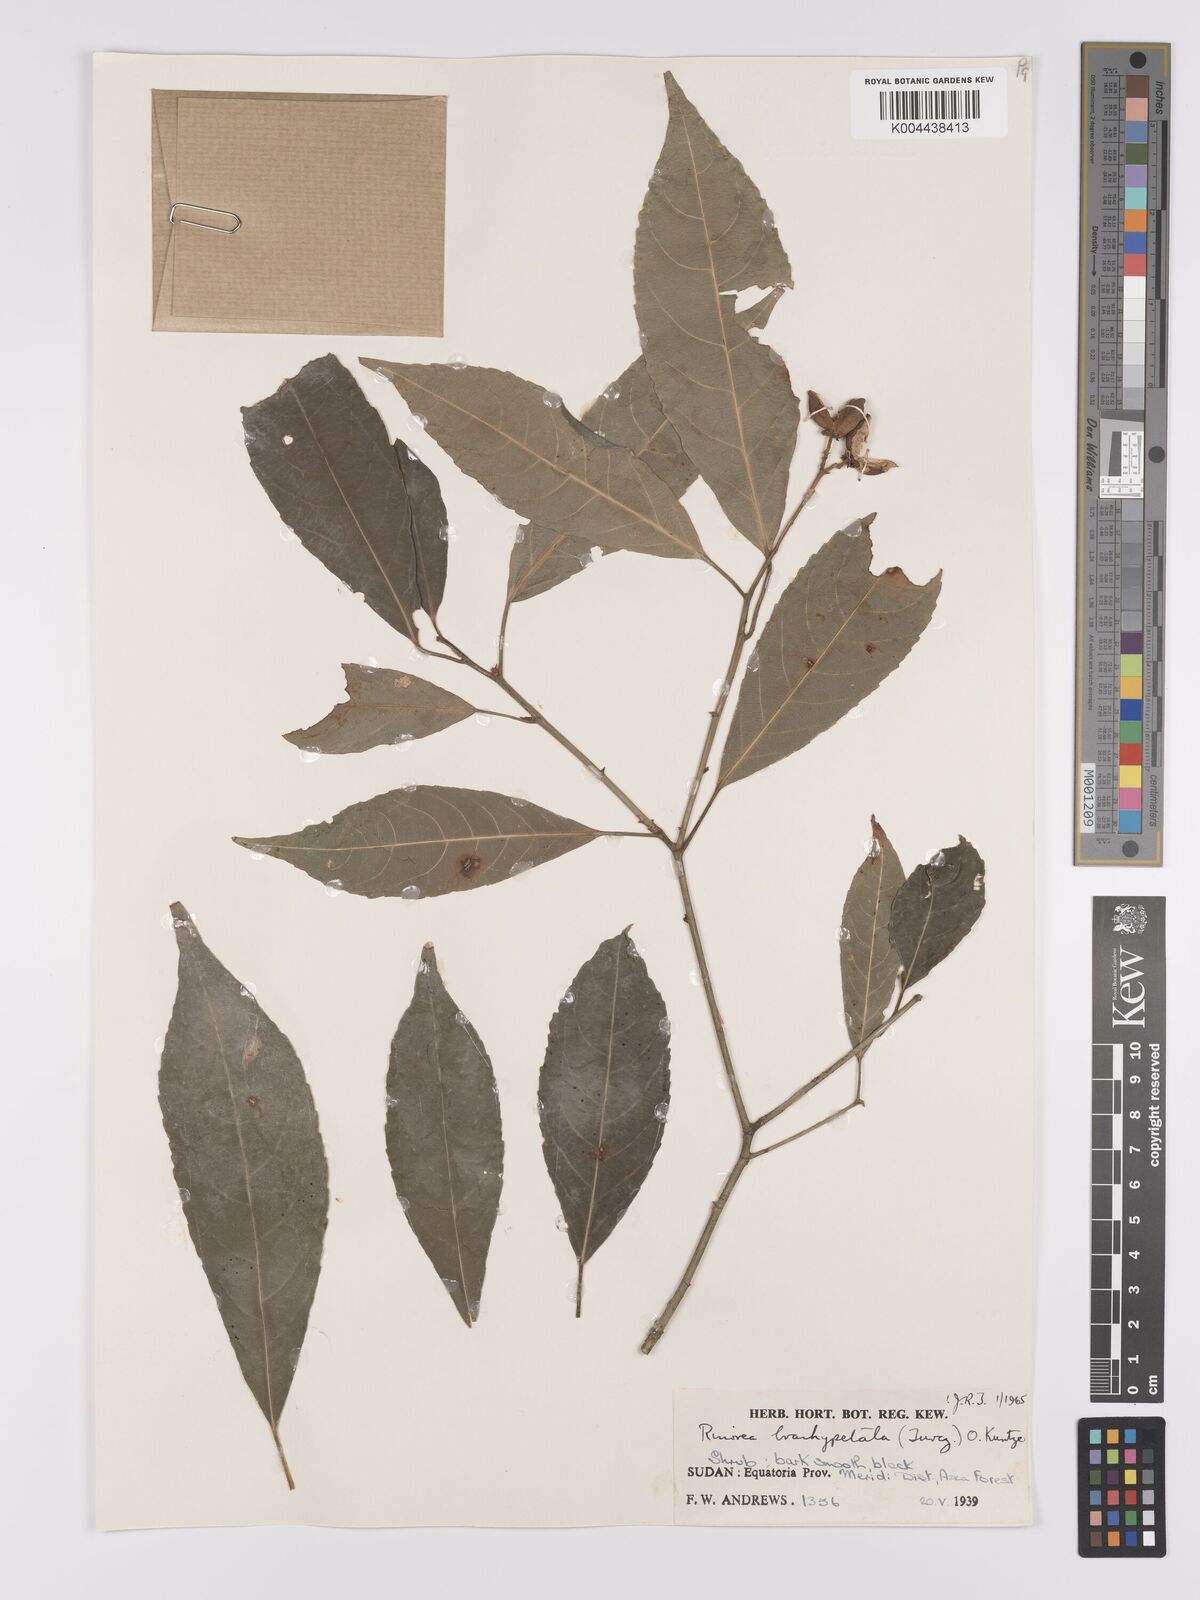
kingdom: Plantae
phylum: Tracheophyta
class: Magnoliopsida
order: Malpighiales
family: Violaceae
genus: Rinorea
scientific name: Rinorea brachypetala
